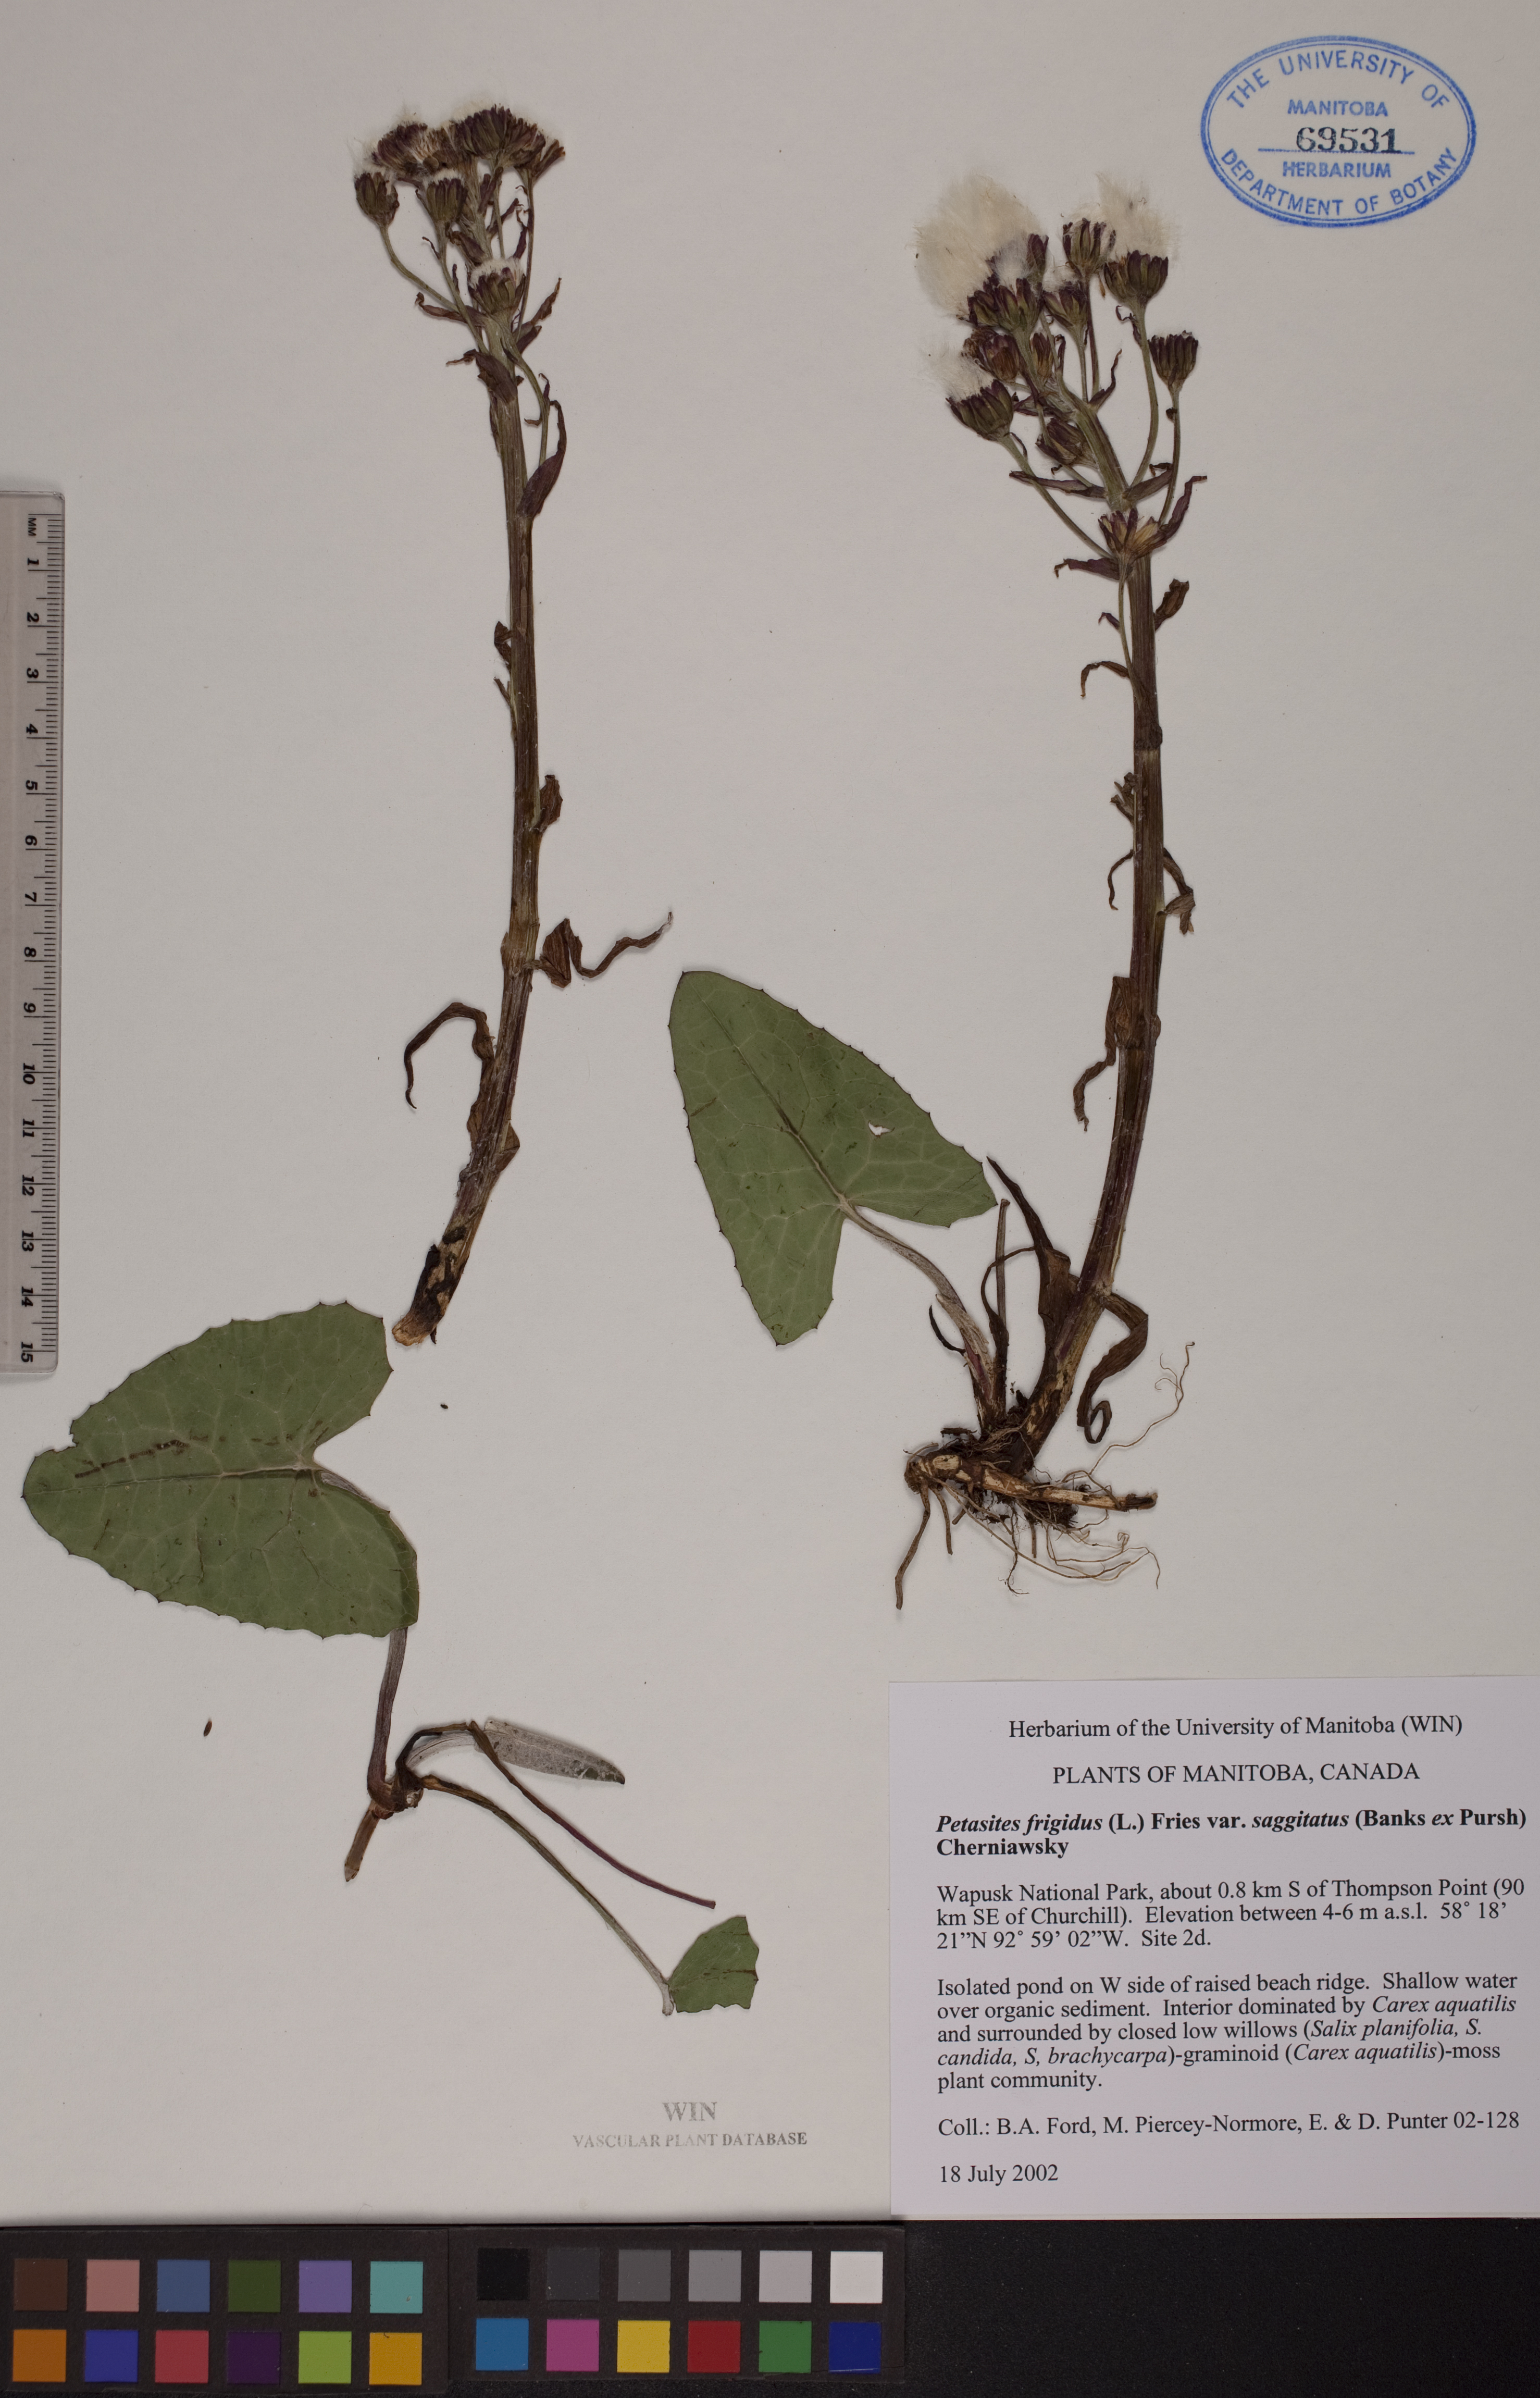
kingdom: Plantae
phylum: Tracheophyta
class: Magnoliopsida
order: Asterales
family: Asteraceae
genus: Petasites
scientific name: Petasites frigidus
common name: Arctic butterbur
